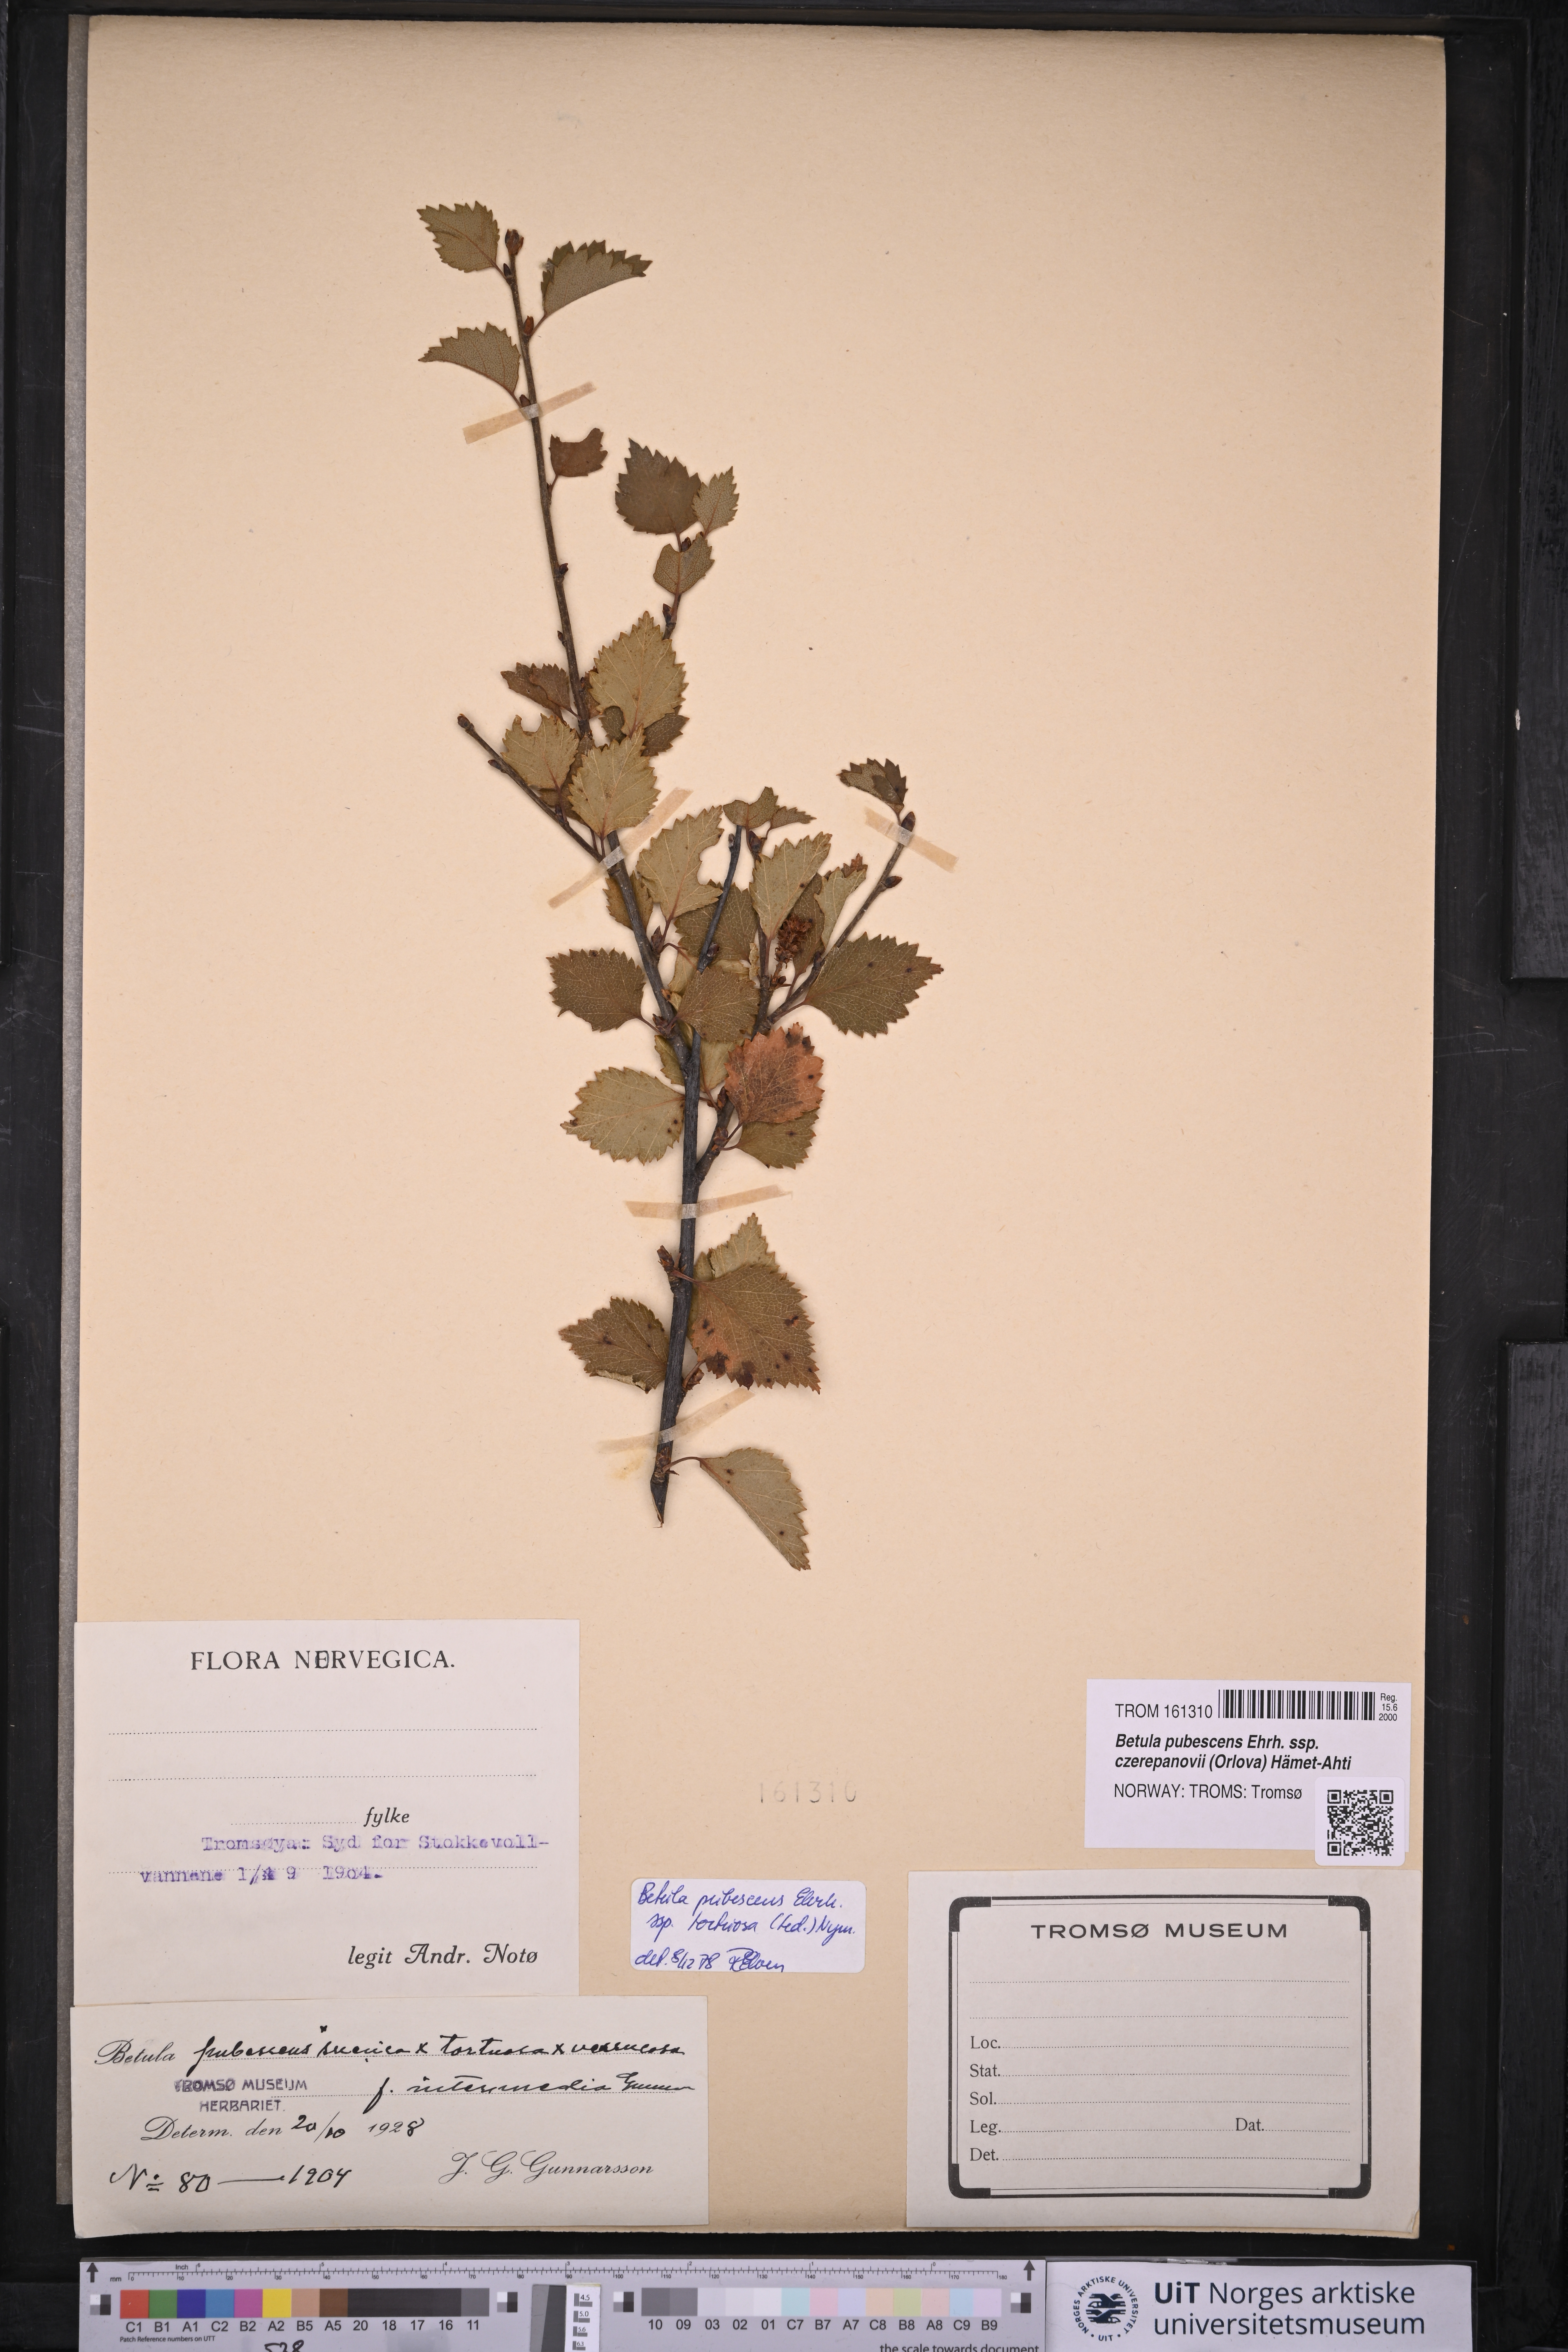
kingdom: Plantae
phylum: Tracheophyta
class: Magnoliopsida
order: Fagales
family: Betulaceae
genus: Betula
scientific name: Betula pubescens
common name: Downy birch
